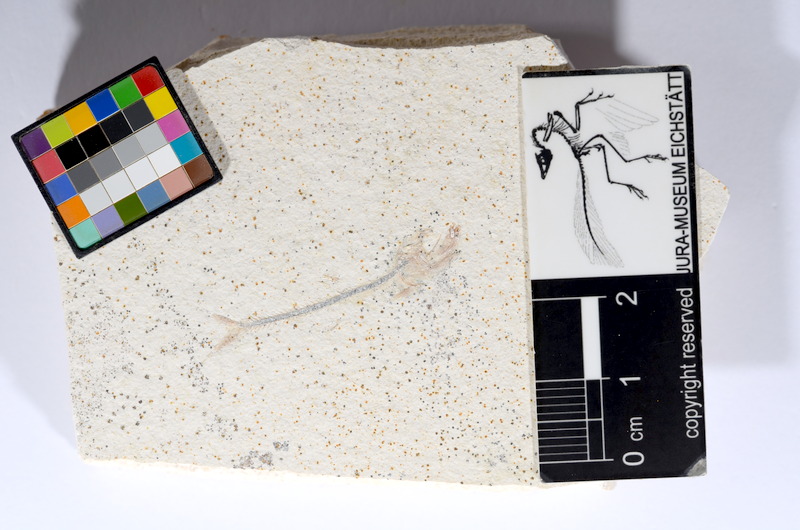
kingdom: Animalia
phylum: Chordata
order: Salmoniformes
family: Orthogonikleithridae
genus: Orthogonikleithrus
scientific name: Orthogonikleithrus hoelli
